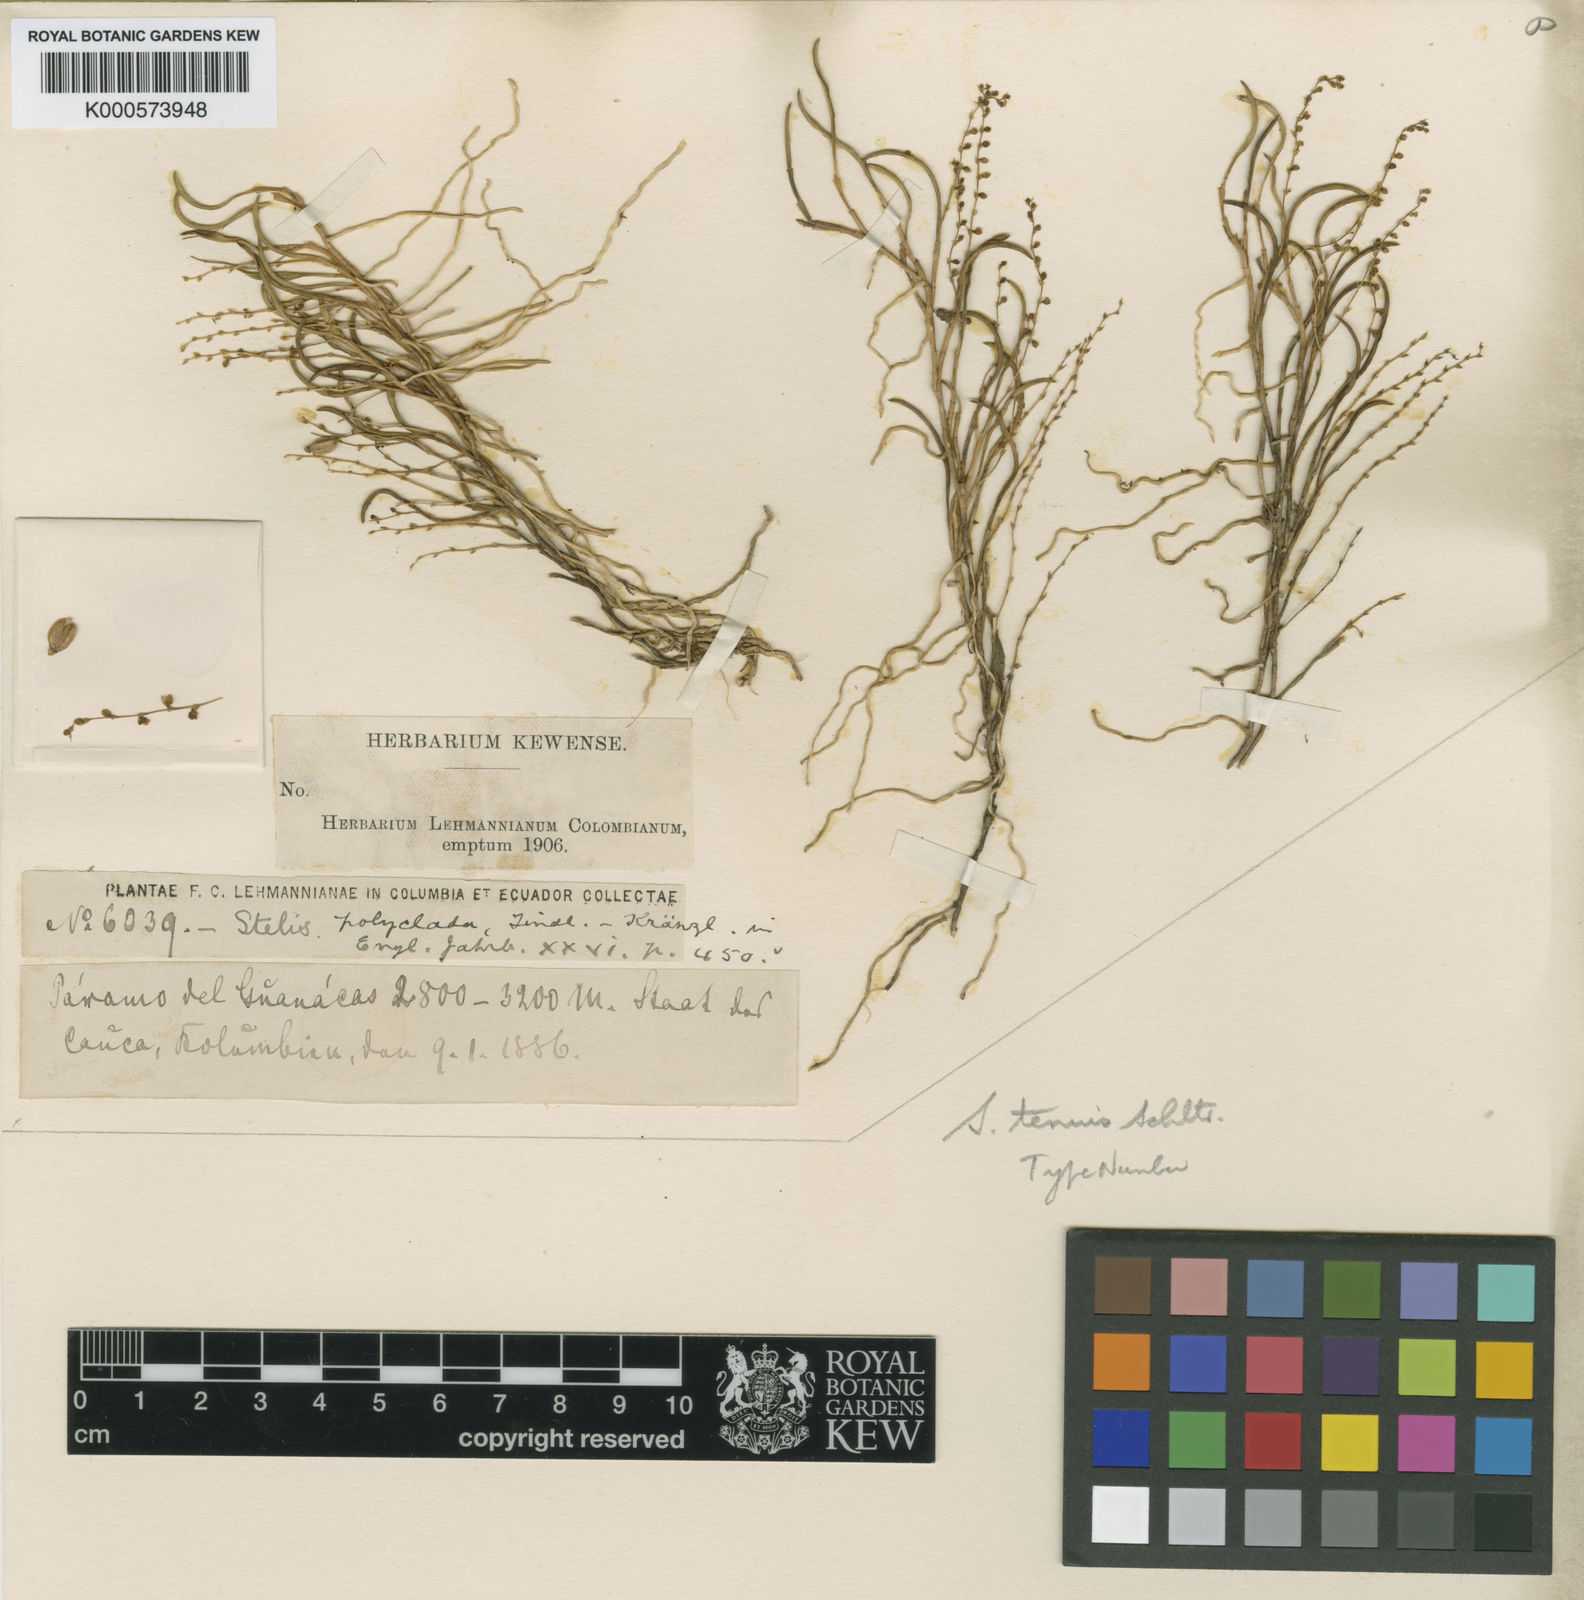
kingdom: Plantae
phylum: Tracheophyta
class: Liliopsida
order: Asparagales
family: Orchidaceae
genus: Stelis
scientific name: Stelis pusilla
